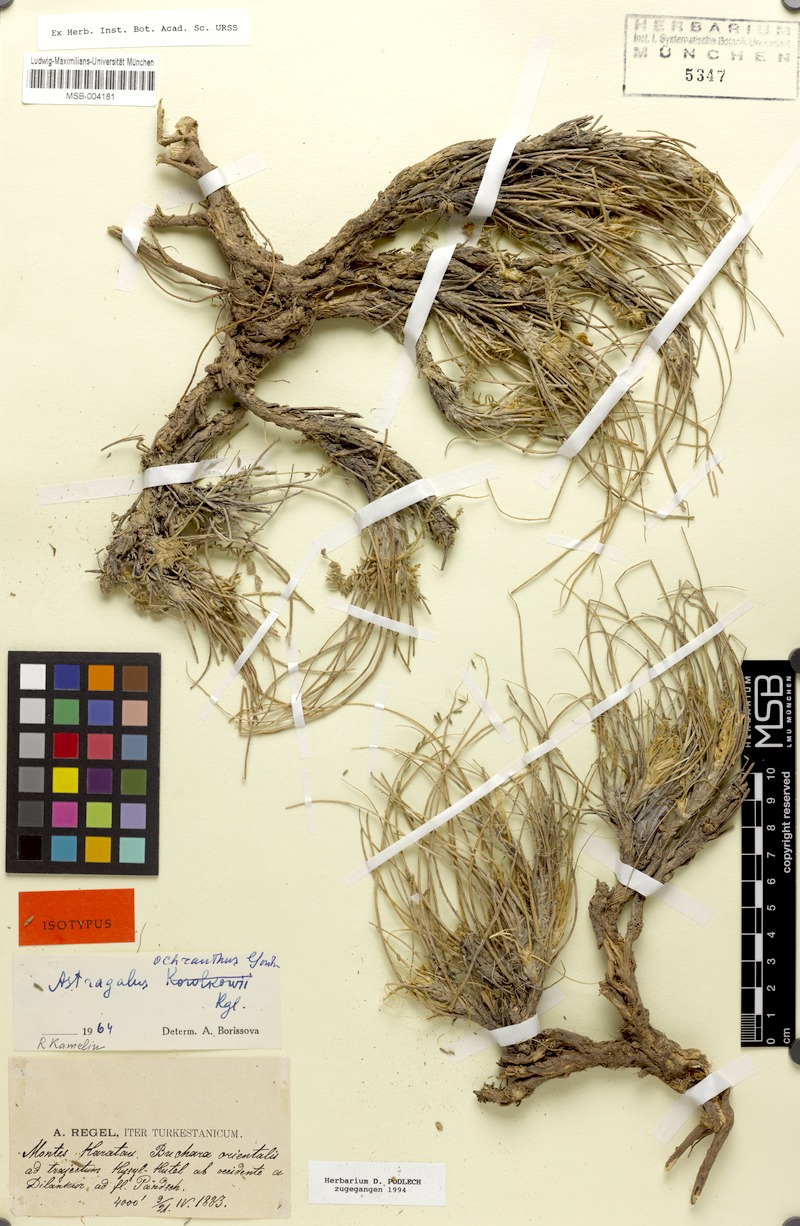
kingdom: Plantae
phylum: Tracheophyta
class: Magnoliopsida
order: Fabales
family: Fabaceae
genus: Astragalus
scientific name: Astragalus ochranthus
